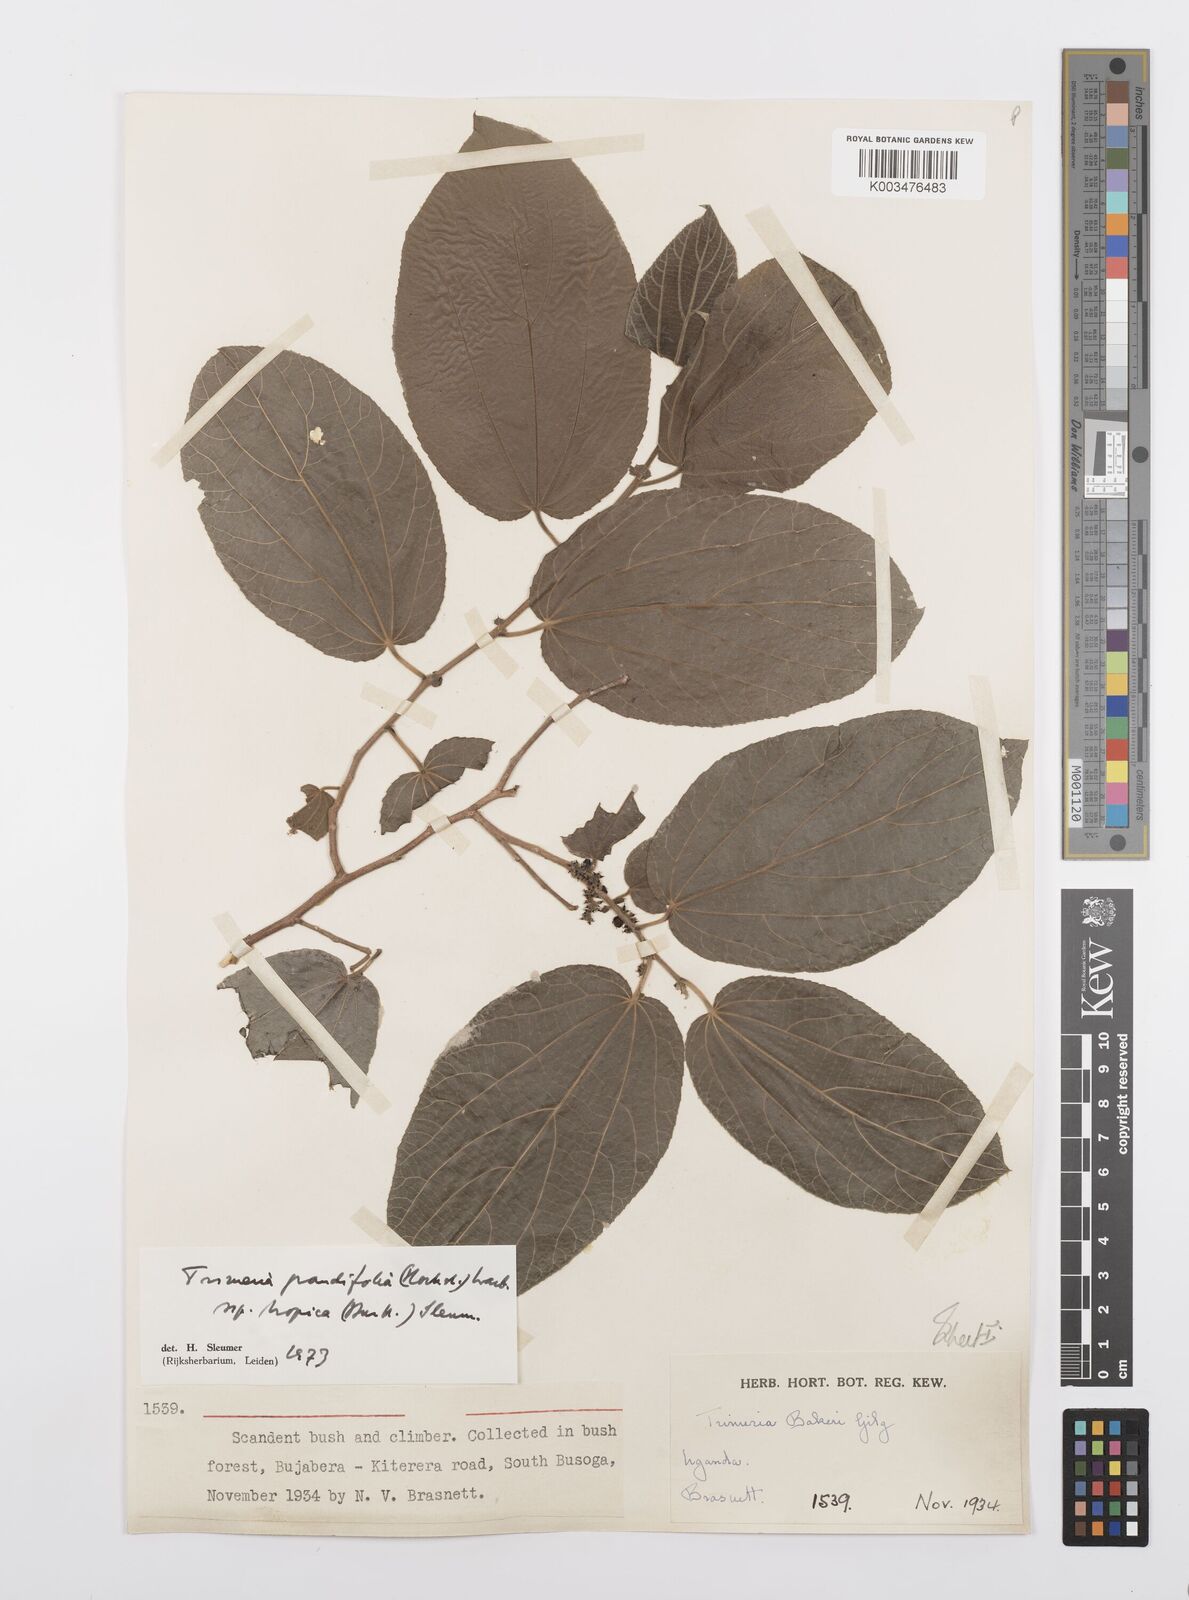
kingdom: Plantae
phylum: Tracheophyta
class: Magnoliopsida
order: Malpighiales
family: Salicaceae
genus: Trimeria
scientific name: Trimeria grandifolia
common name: Wild mulberry
